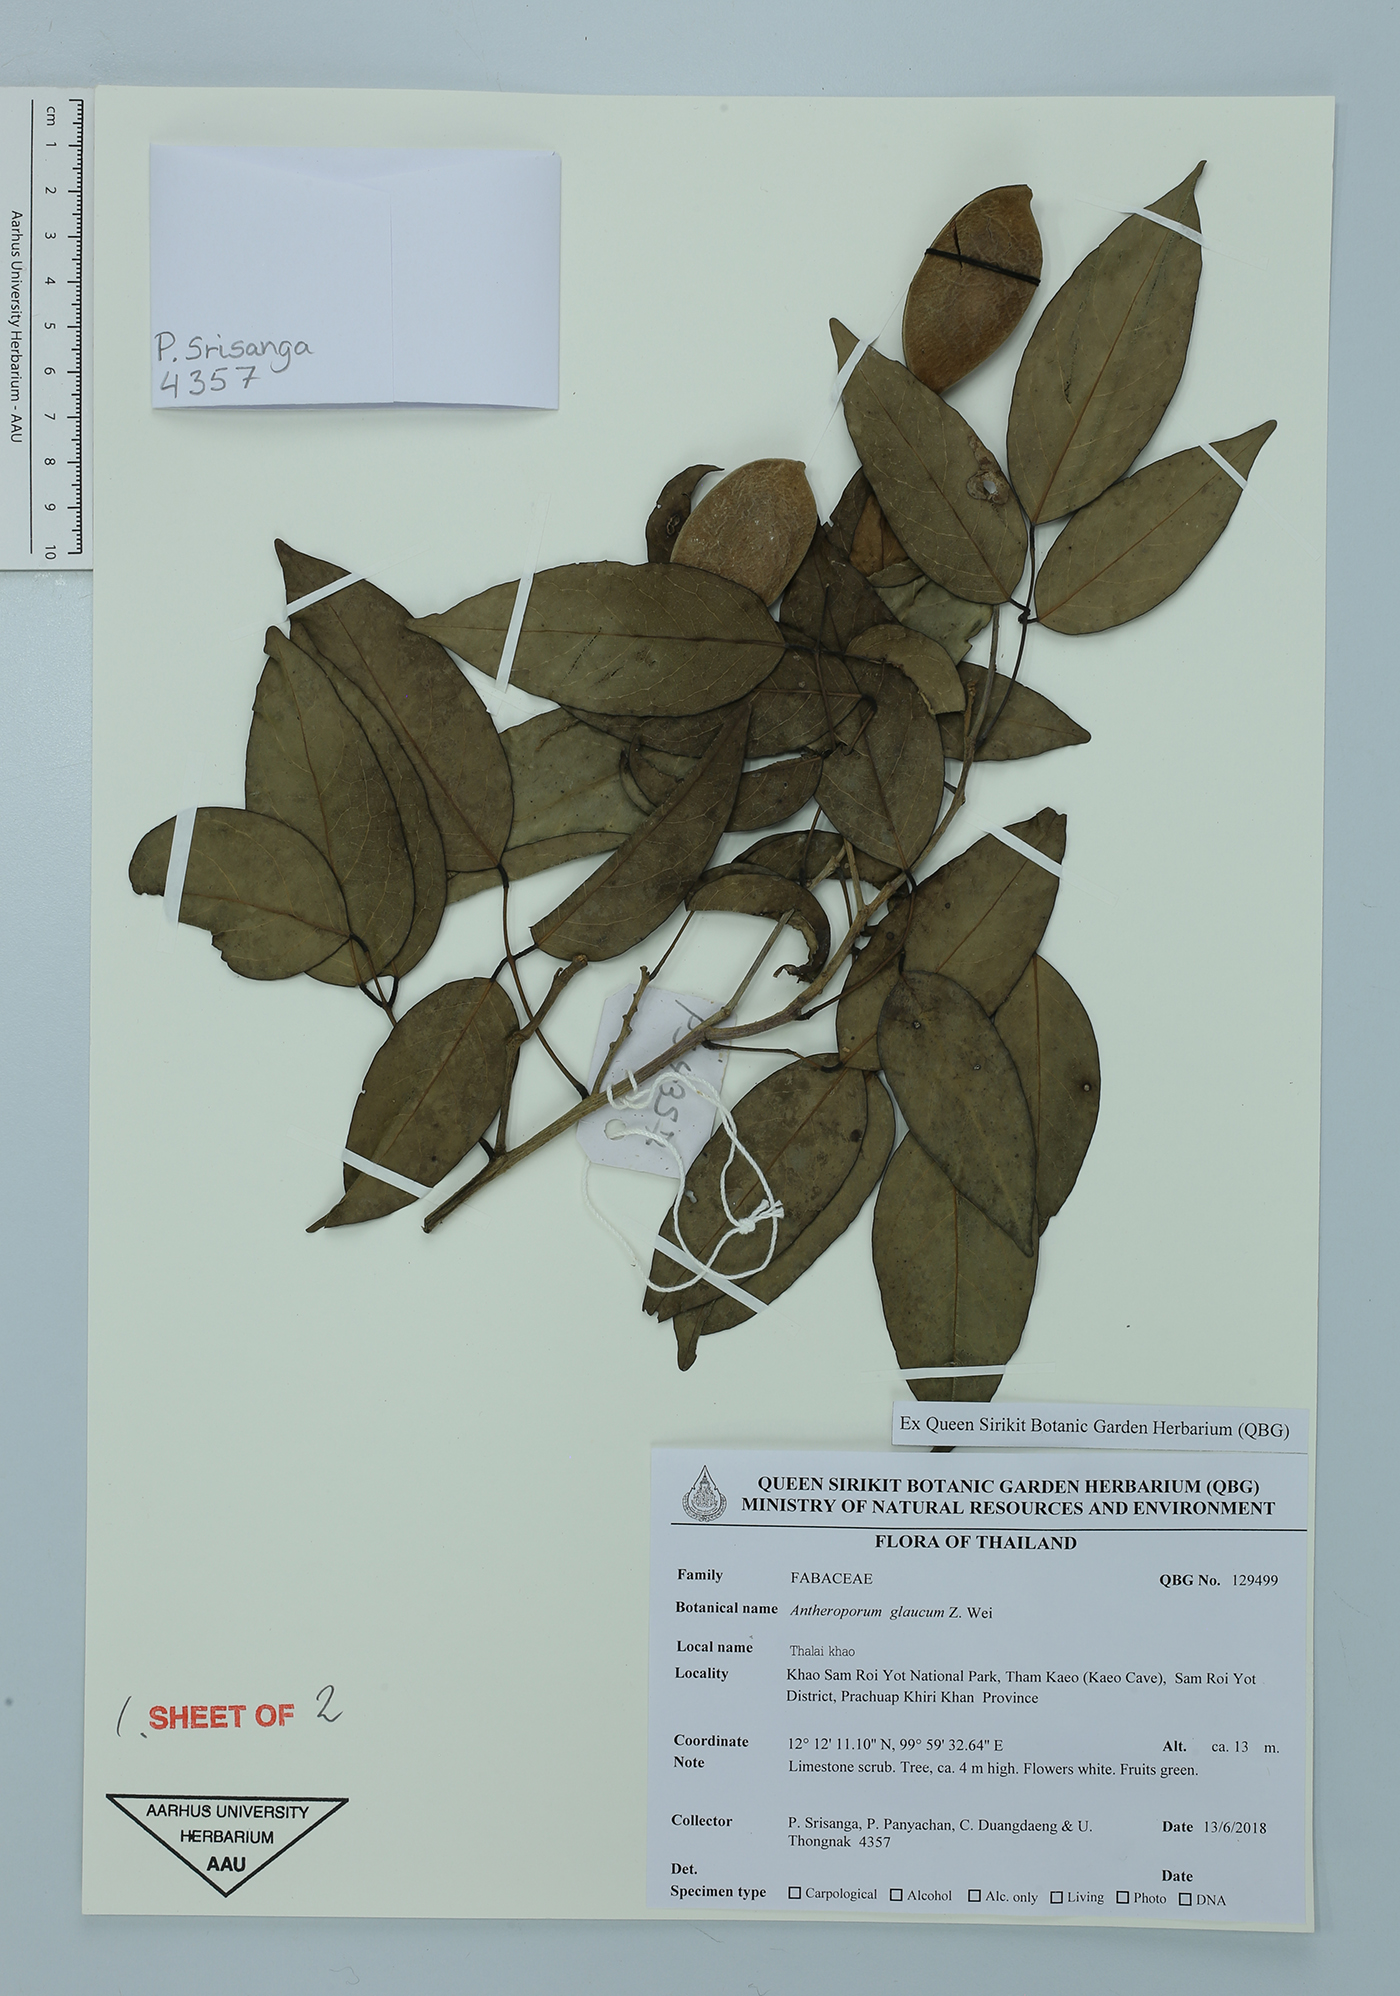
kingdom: Plantae
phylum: Tracheophyta
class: Magnoliopsida
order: Fabales
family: Fabaceae
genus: Antheroporum
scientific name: Antheroporum harmandii
